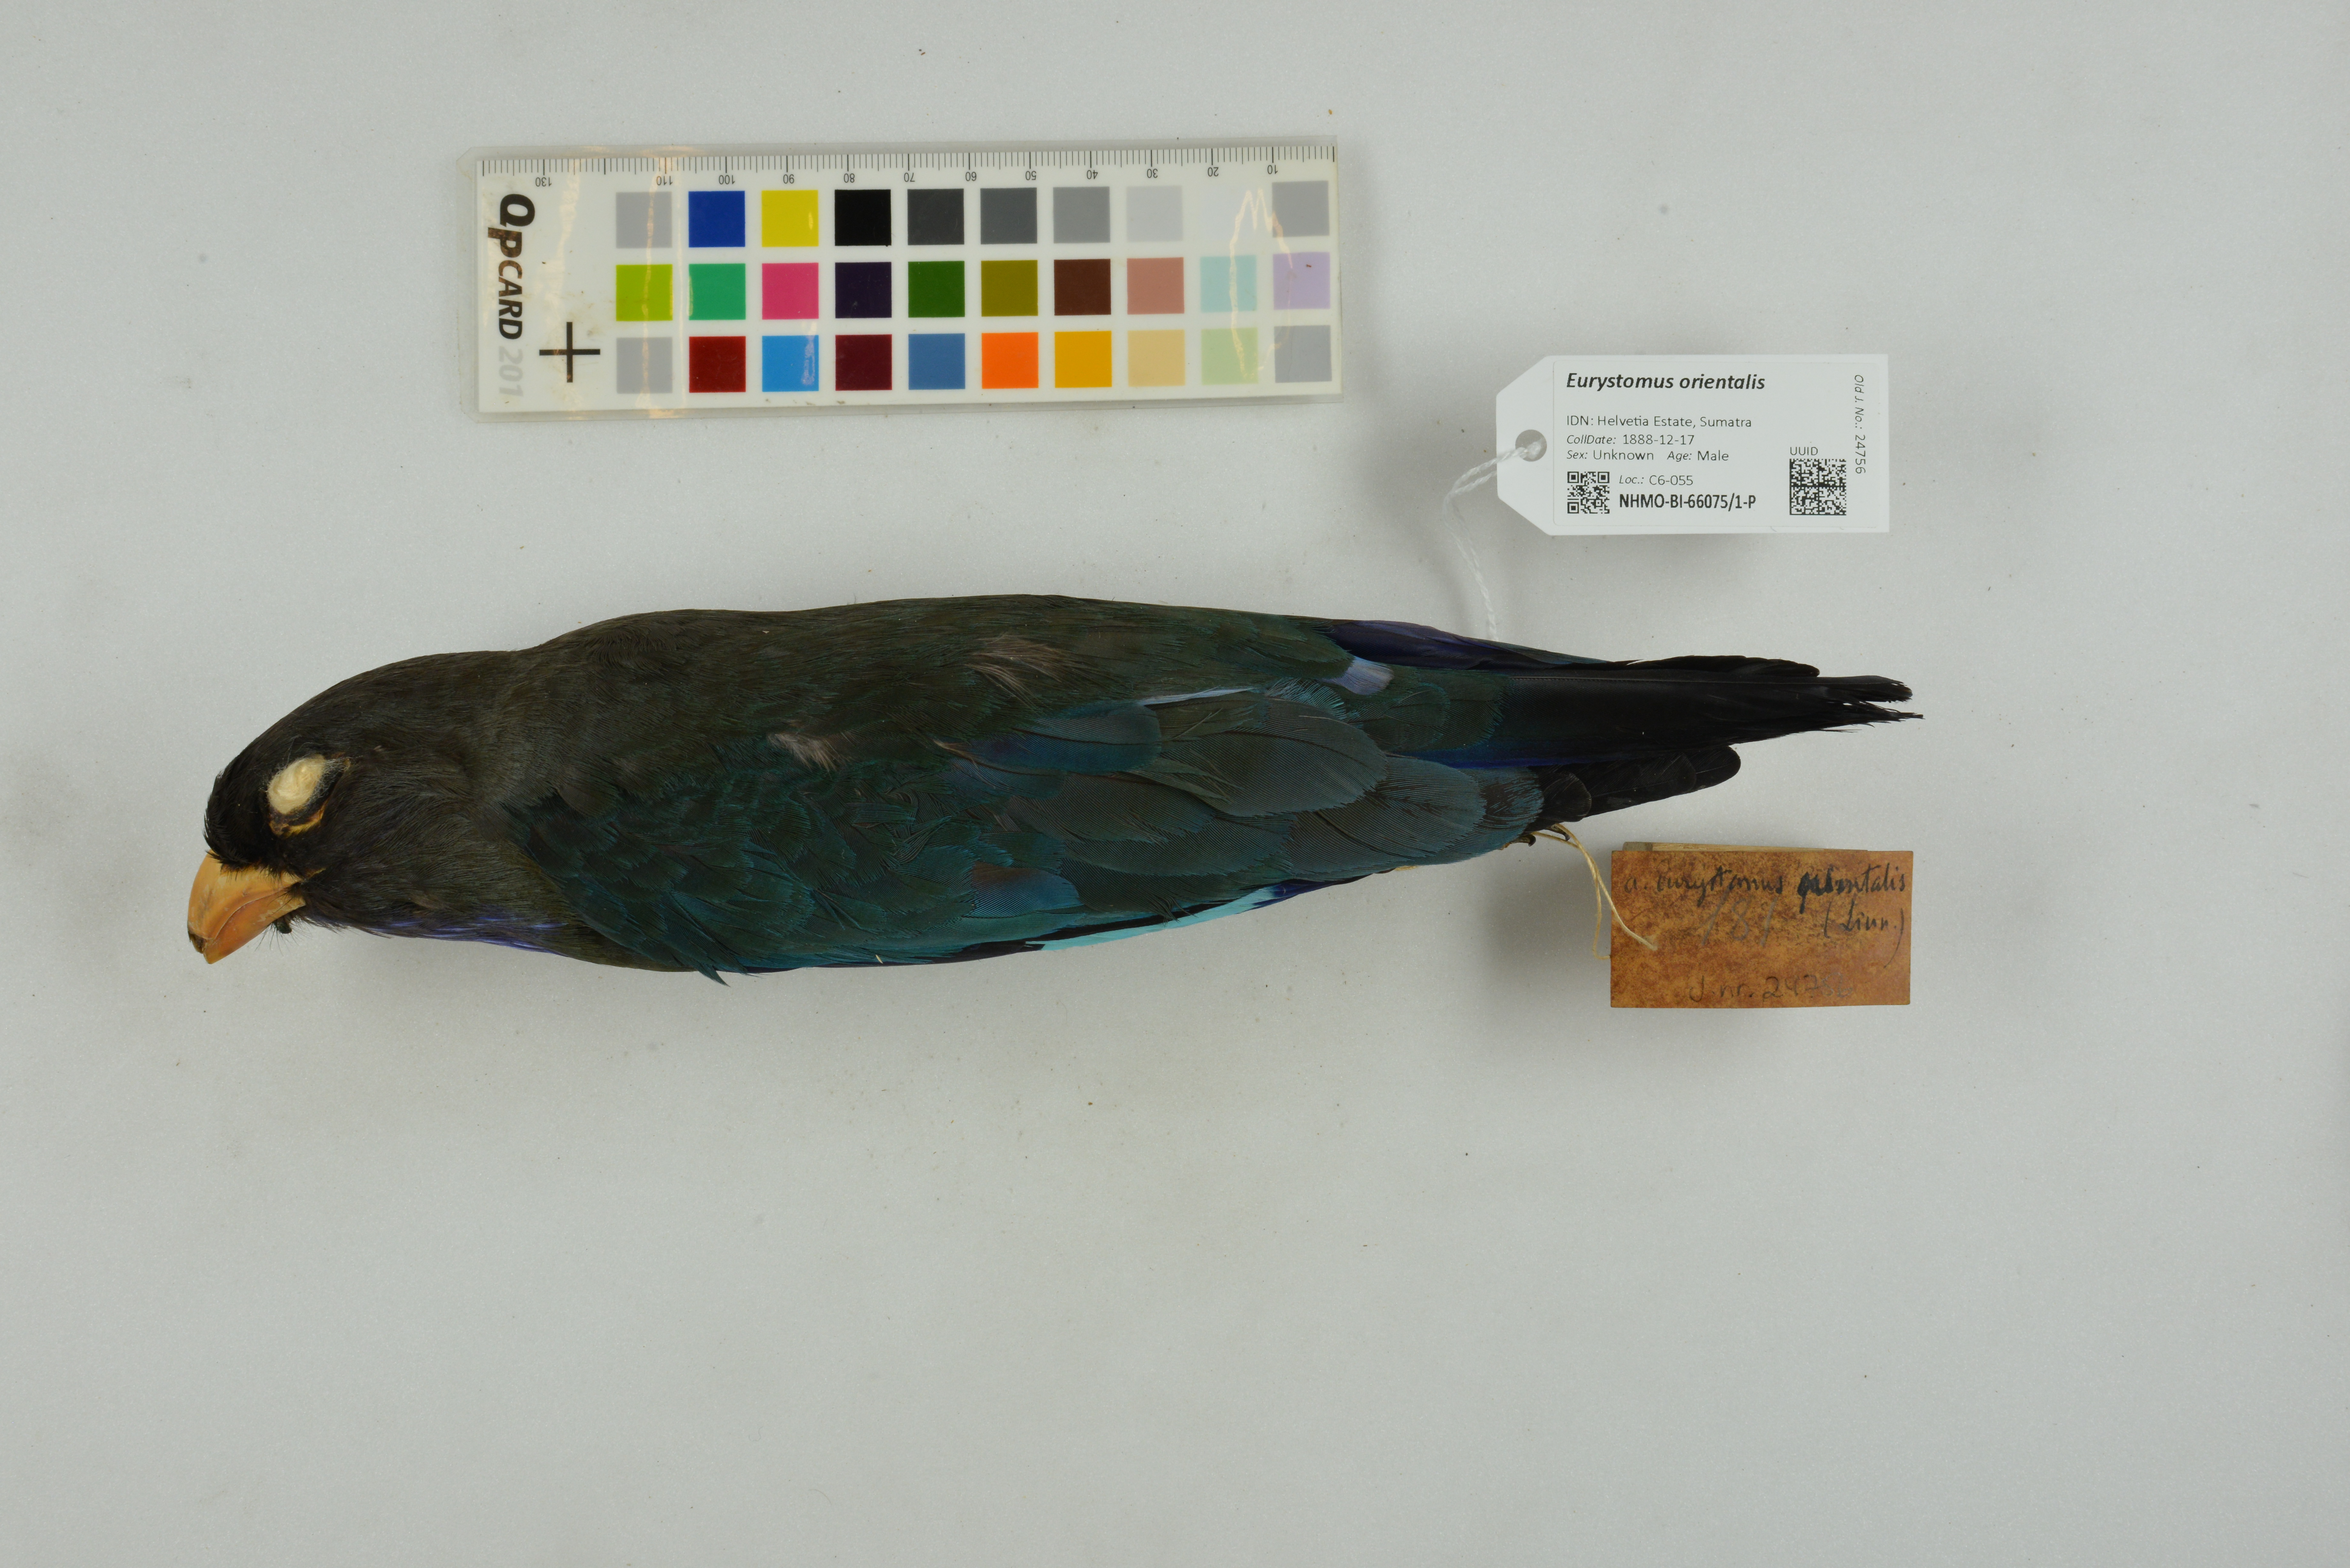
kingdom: Animalia
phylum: Chordata
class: Aves
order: Coraciiformes
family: Coraciidae
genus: Eurystomus
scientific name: Eurystomus orientalis
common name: Oriental dollarbird
